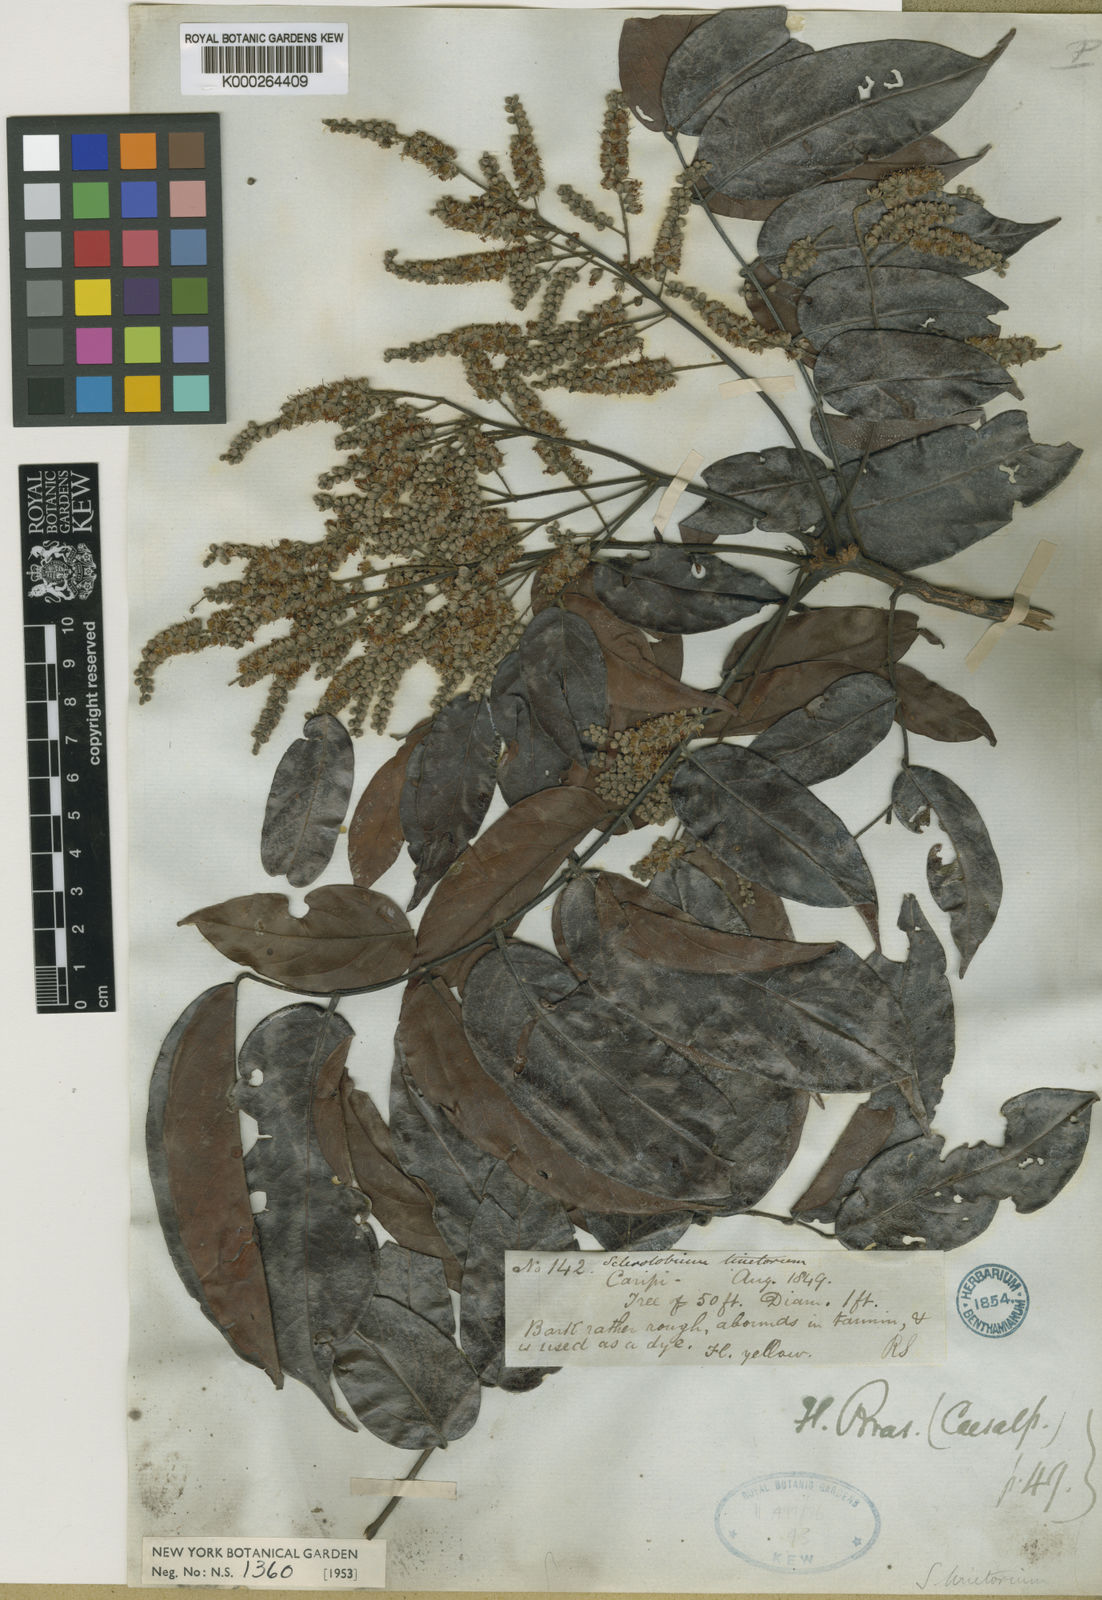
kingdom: Plantae
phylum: Tracheophyta
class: Magnoliopsida
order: Fabales
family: Fabaceae
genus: Tachigali
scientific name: Tachigali tinctoria
